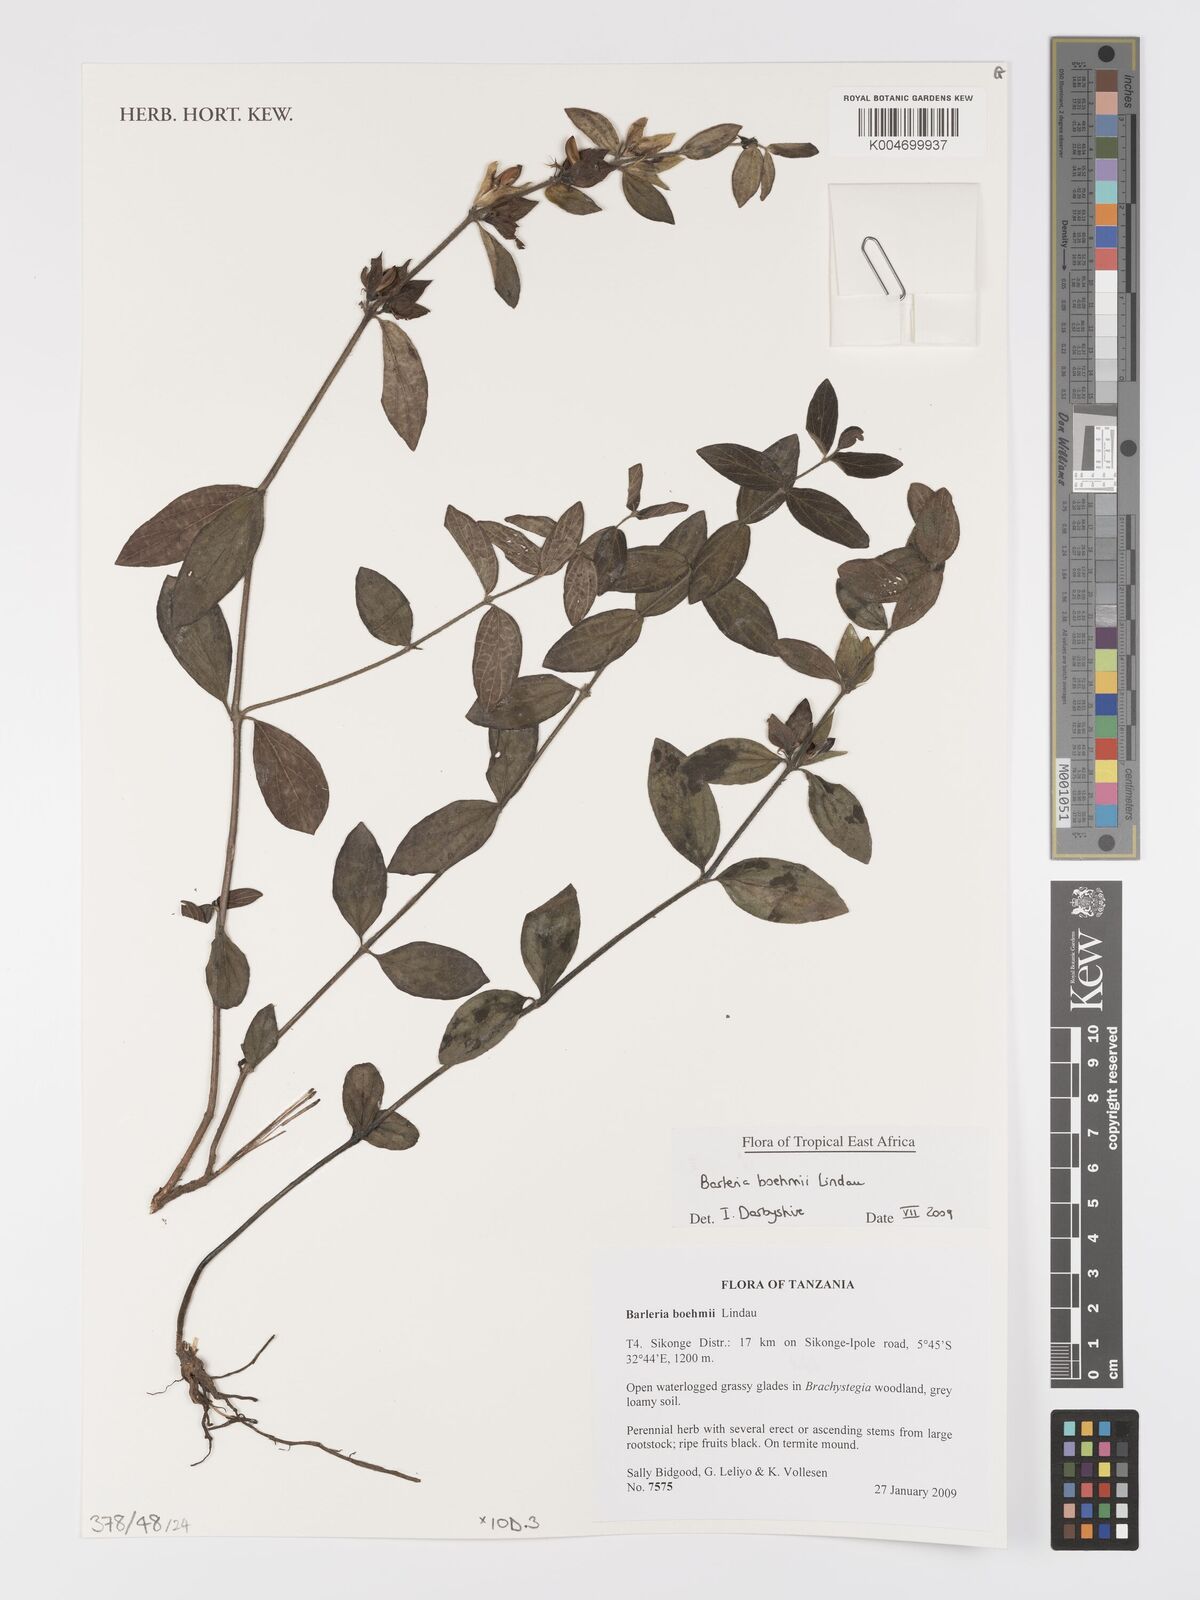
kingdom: Plantae
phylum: Tracheophyta
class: Magnoliopsida
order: Lamiales
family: Acanthaceae
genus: Barleria
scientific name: Barleria boehmii
